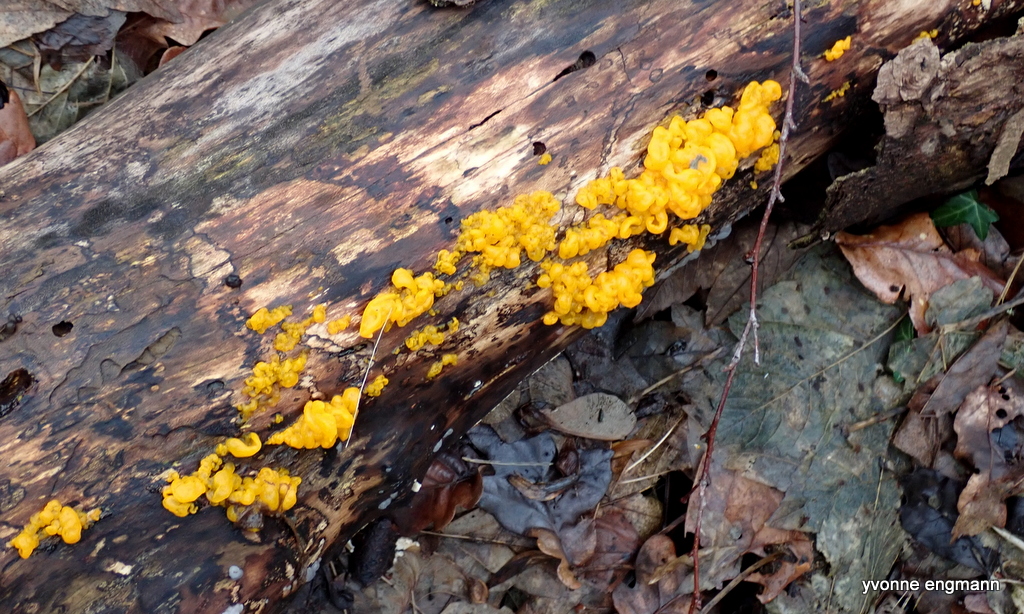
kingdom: Fungi
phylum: Basidiomycota
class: Tremellomycetes
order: Tremellales
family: Tremellaceae
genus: Tremella
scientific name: Tremella mesenterica
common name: gul bævresvamp
